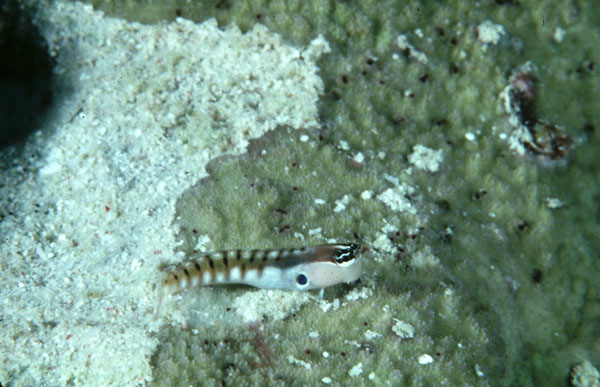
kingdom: Animalia
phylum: Chordata
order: Perciformes
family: Blenniidae
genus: Ecsenius
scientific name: Ecsenius alleni
